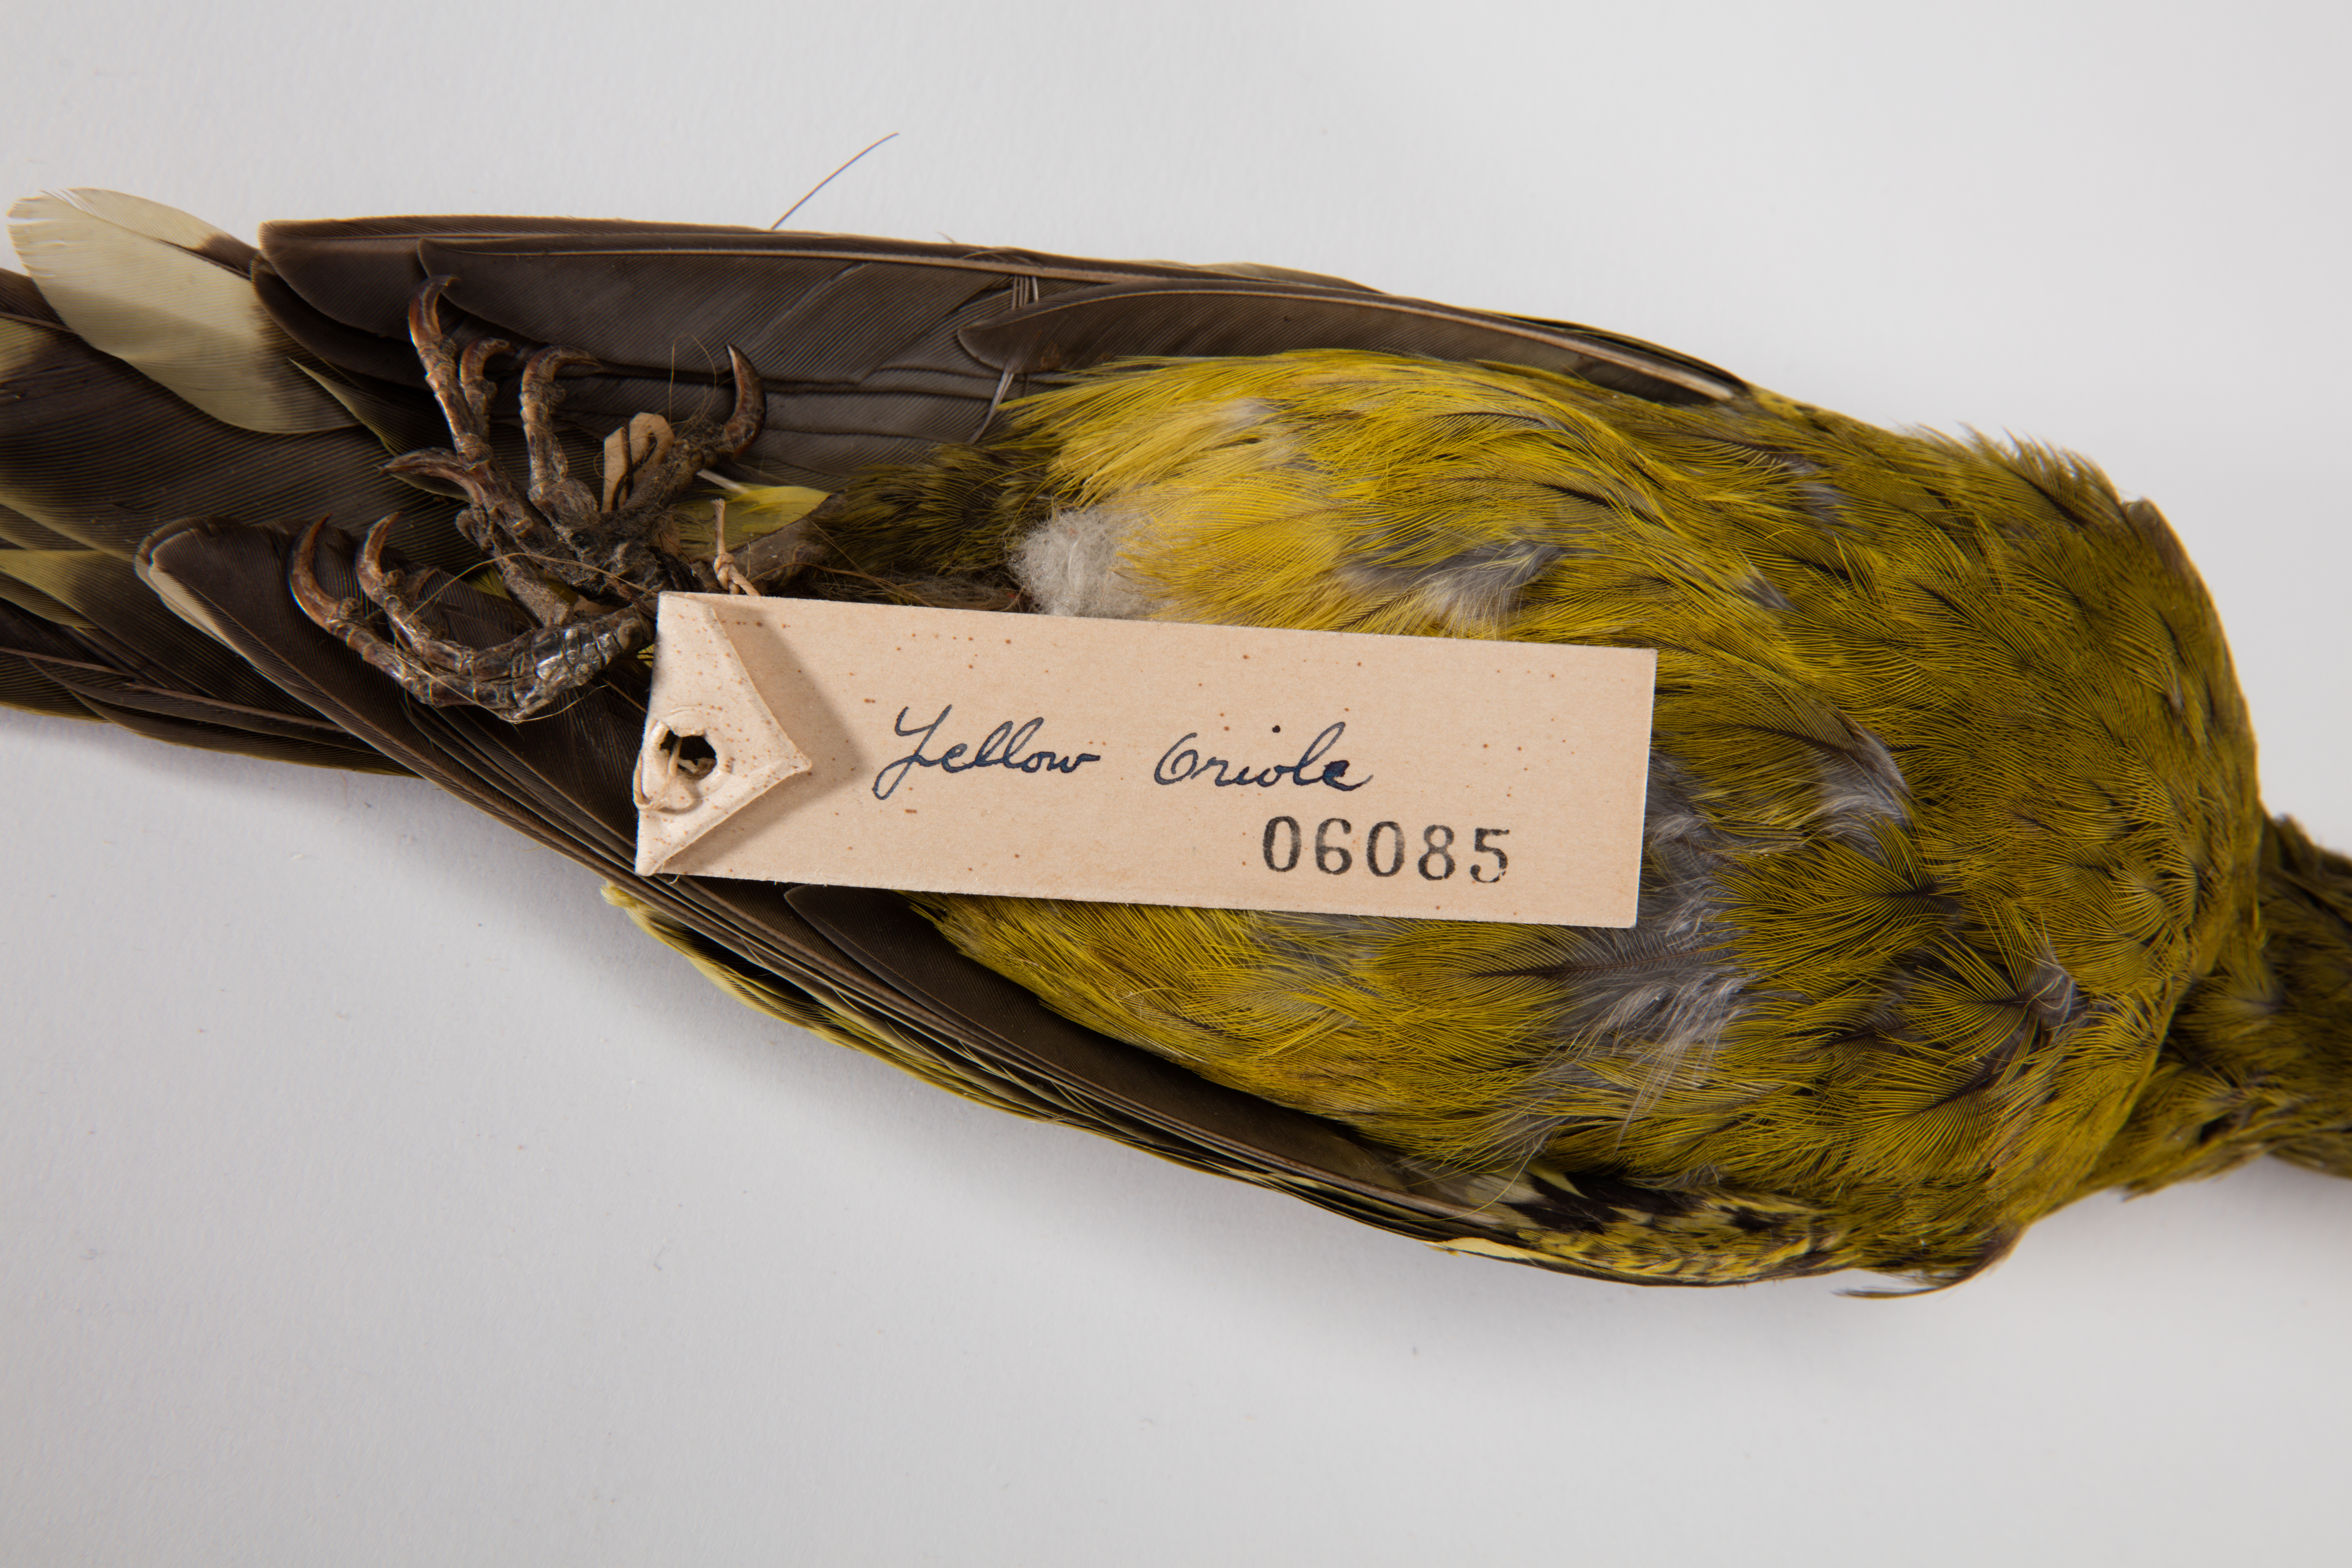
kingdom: Animalia
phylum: Chordata
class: Aves
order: Passeriformes
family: Oriolidae
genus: Oriolus
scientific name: Oriolus flavocinctus
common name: Green oriole
